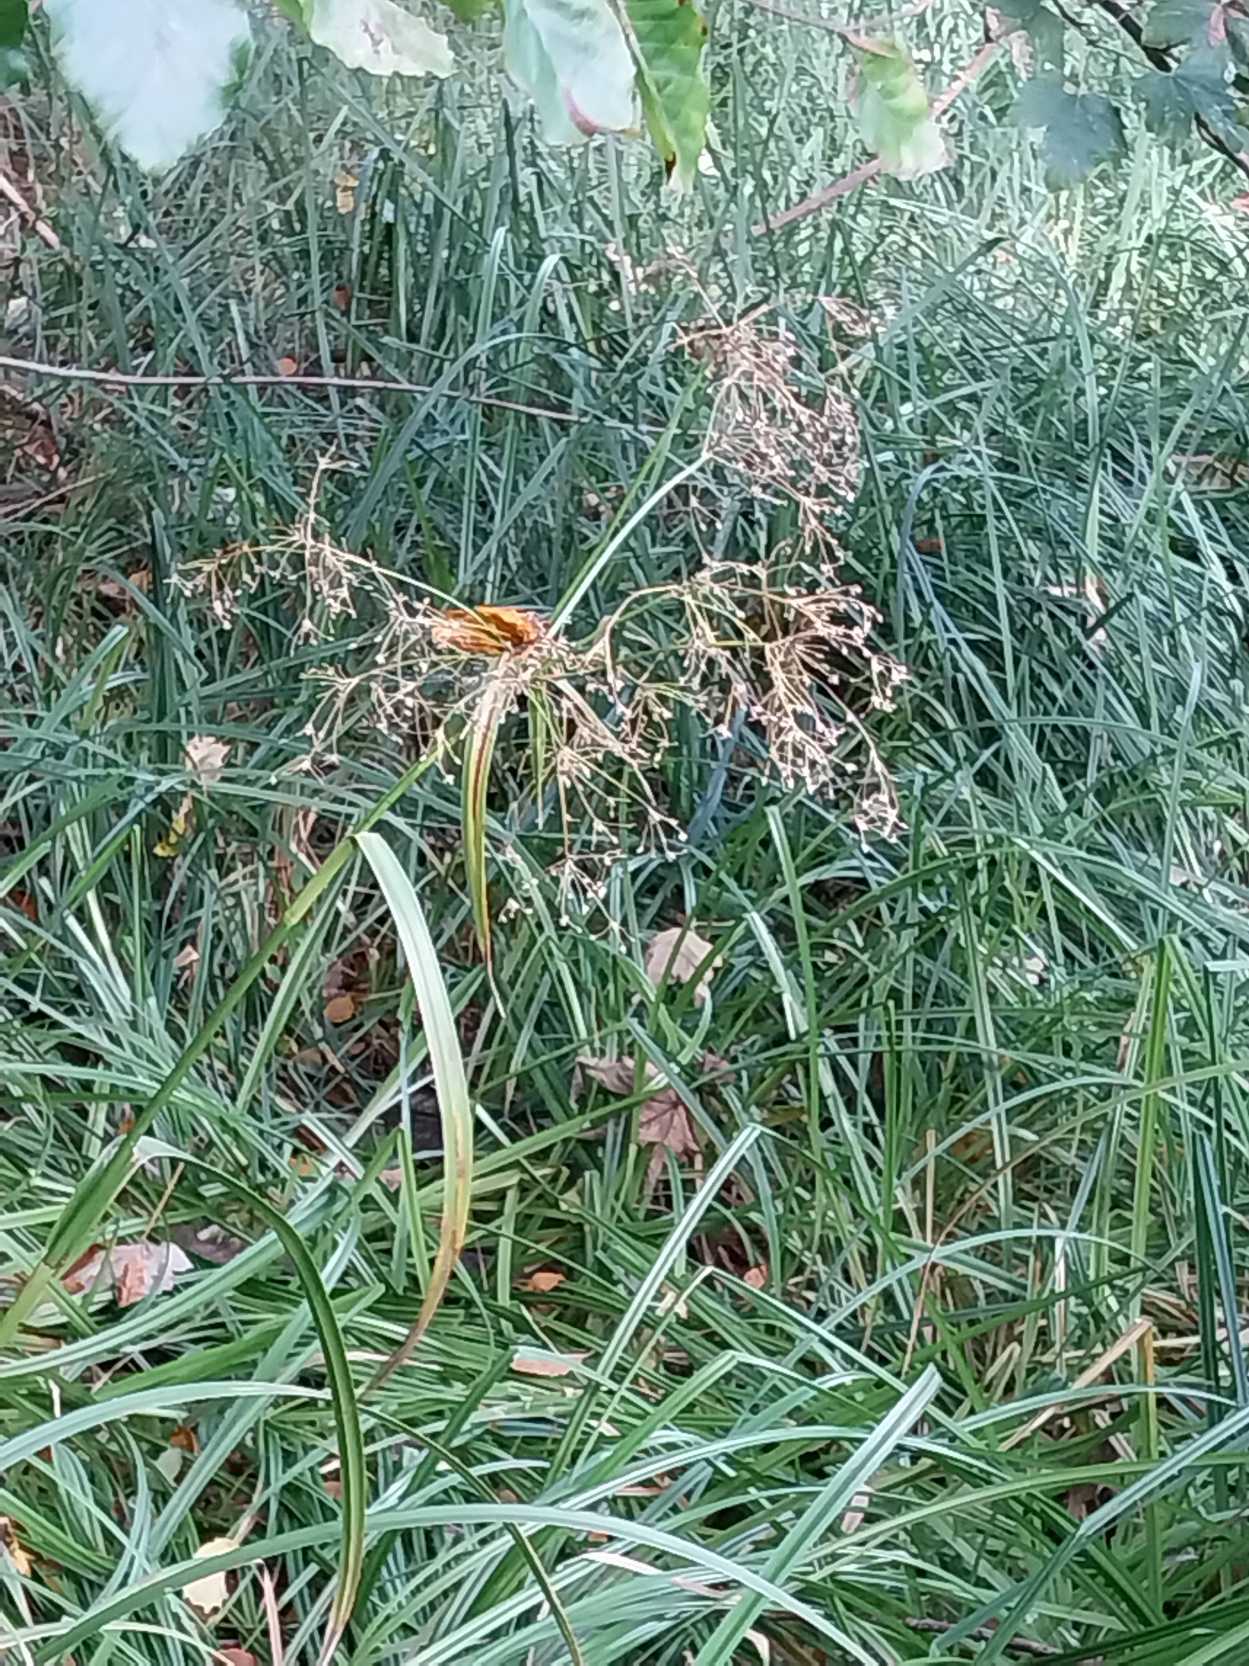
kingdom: Plantae
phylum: Tracheophyta
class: Liliopsida
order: Poales
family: Cyperaceae
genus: Scirpus
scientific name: Scirpus sylvaticus
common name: Skov-kogleaks
